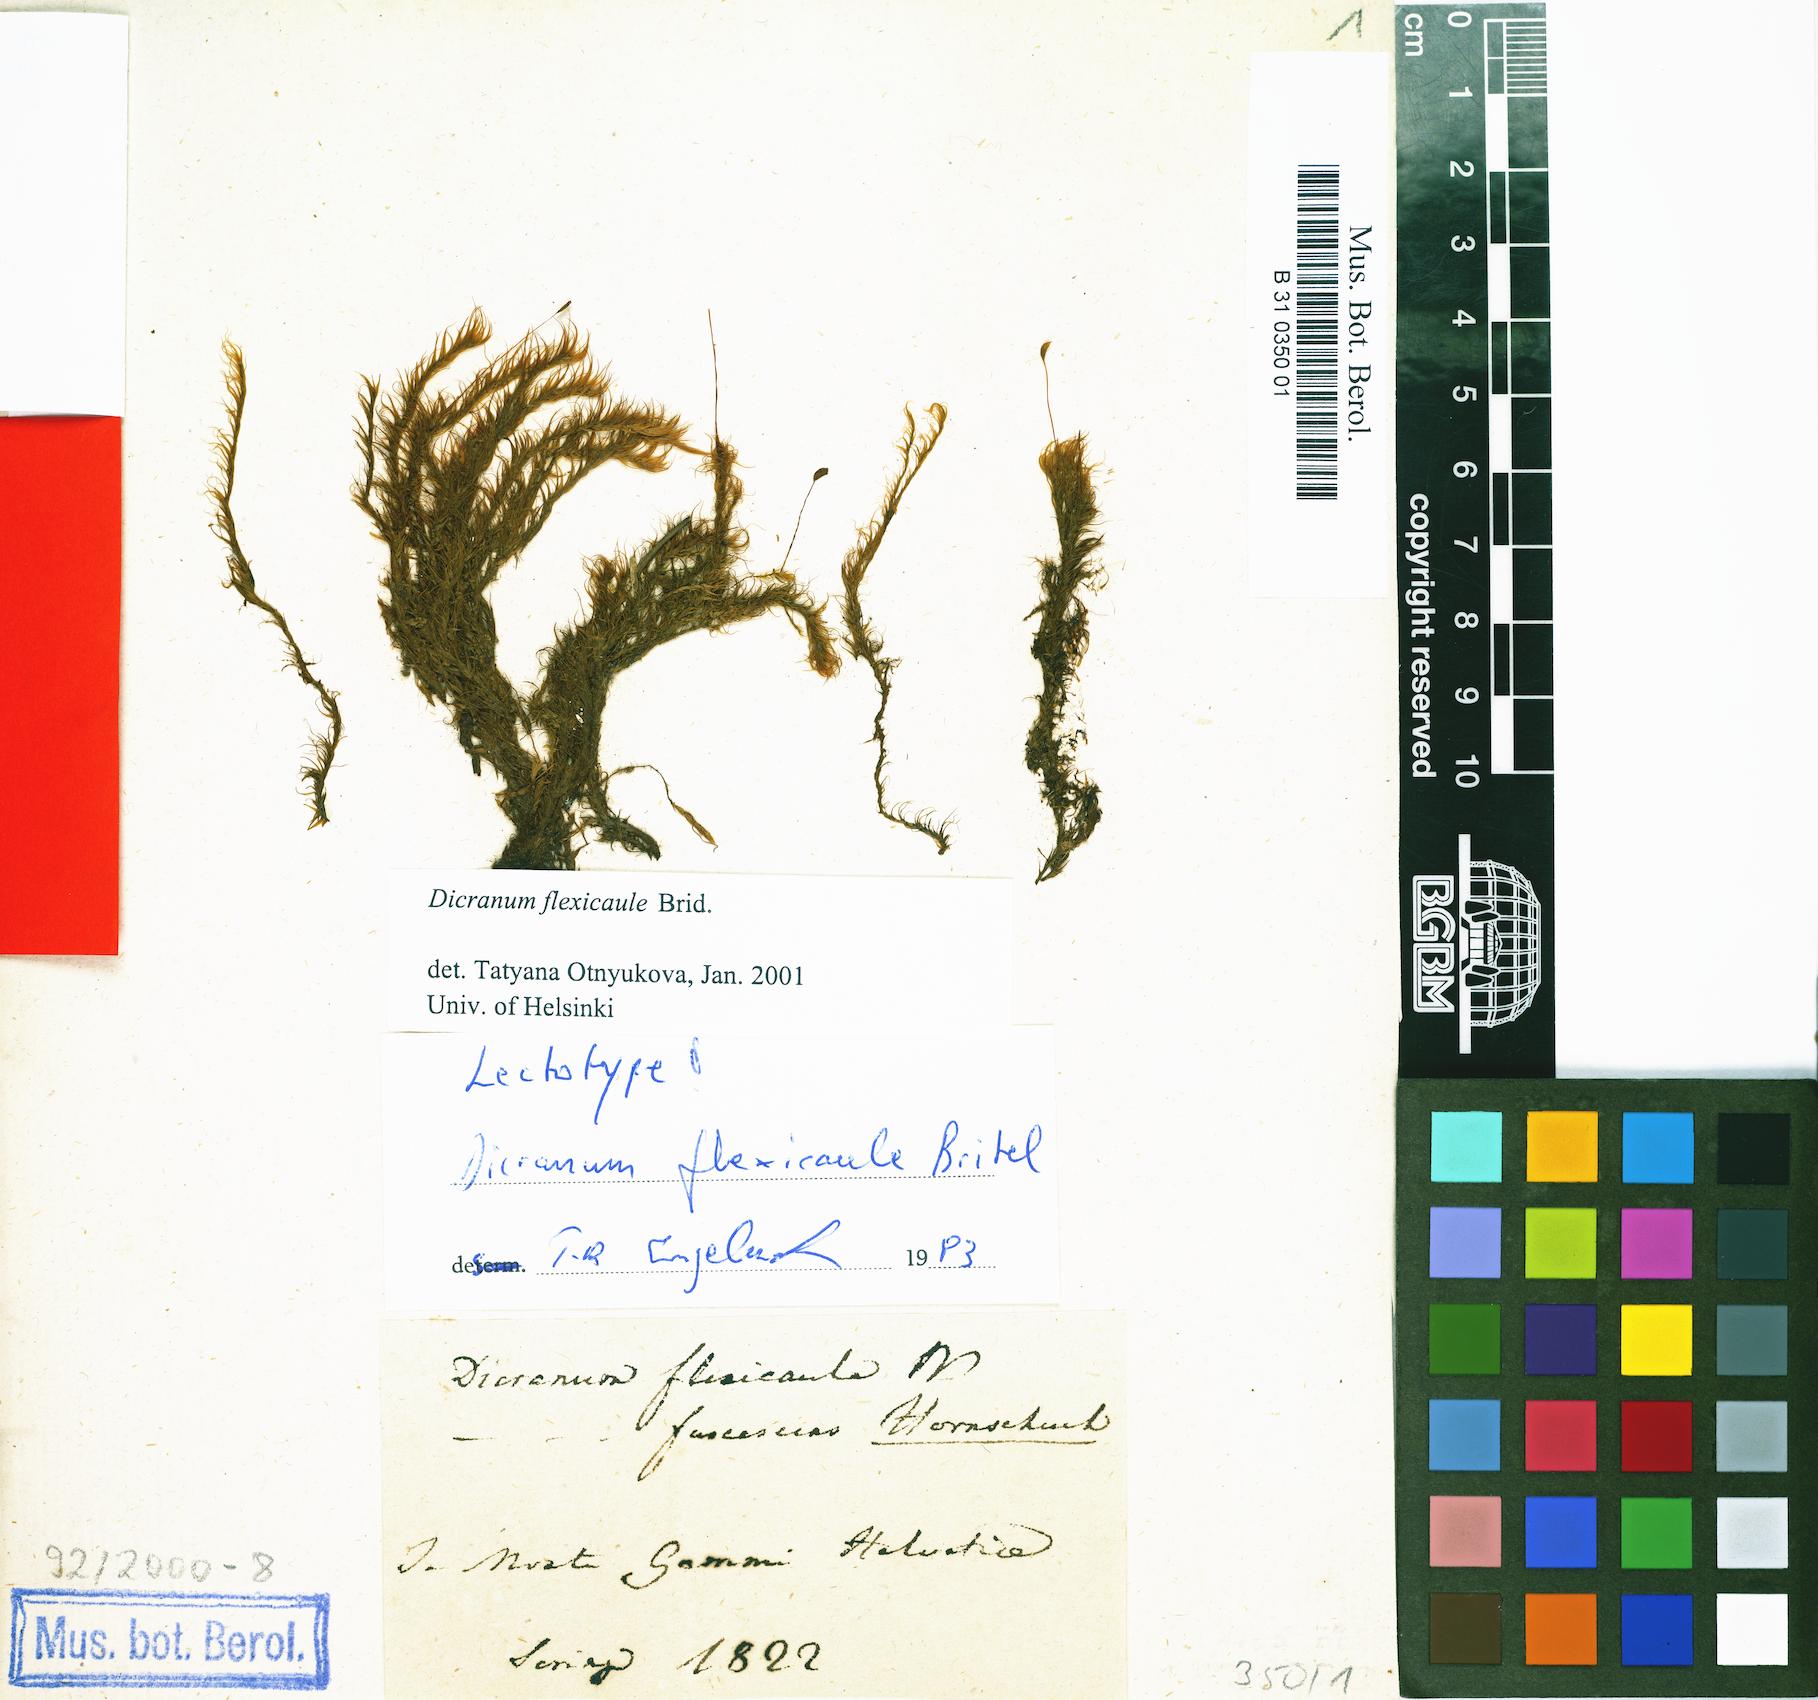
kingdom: Plantae
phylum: Bryophyta
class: Bryopsida
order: Dicranales
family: Dicranaceae
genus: Dicranum
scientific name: Dicranum flexicaule
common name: Bendy heron s-bill moss
